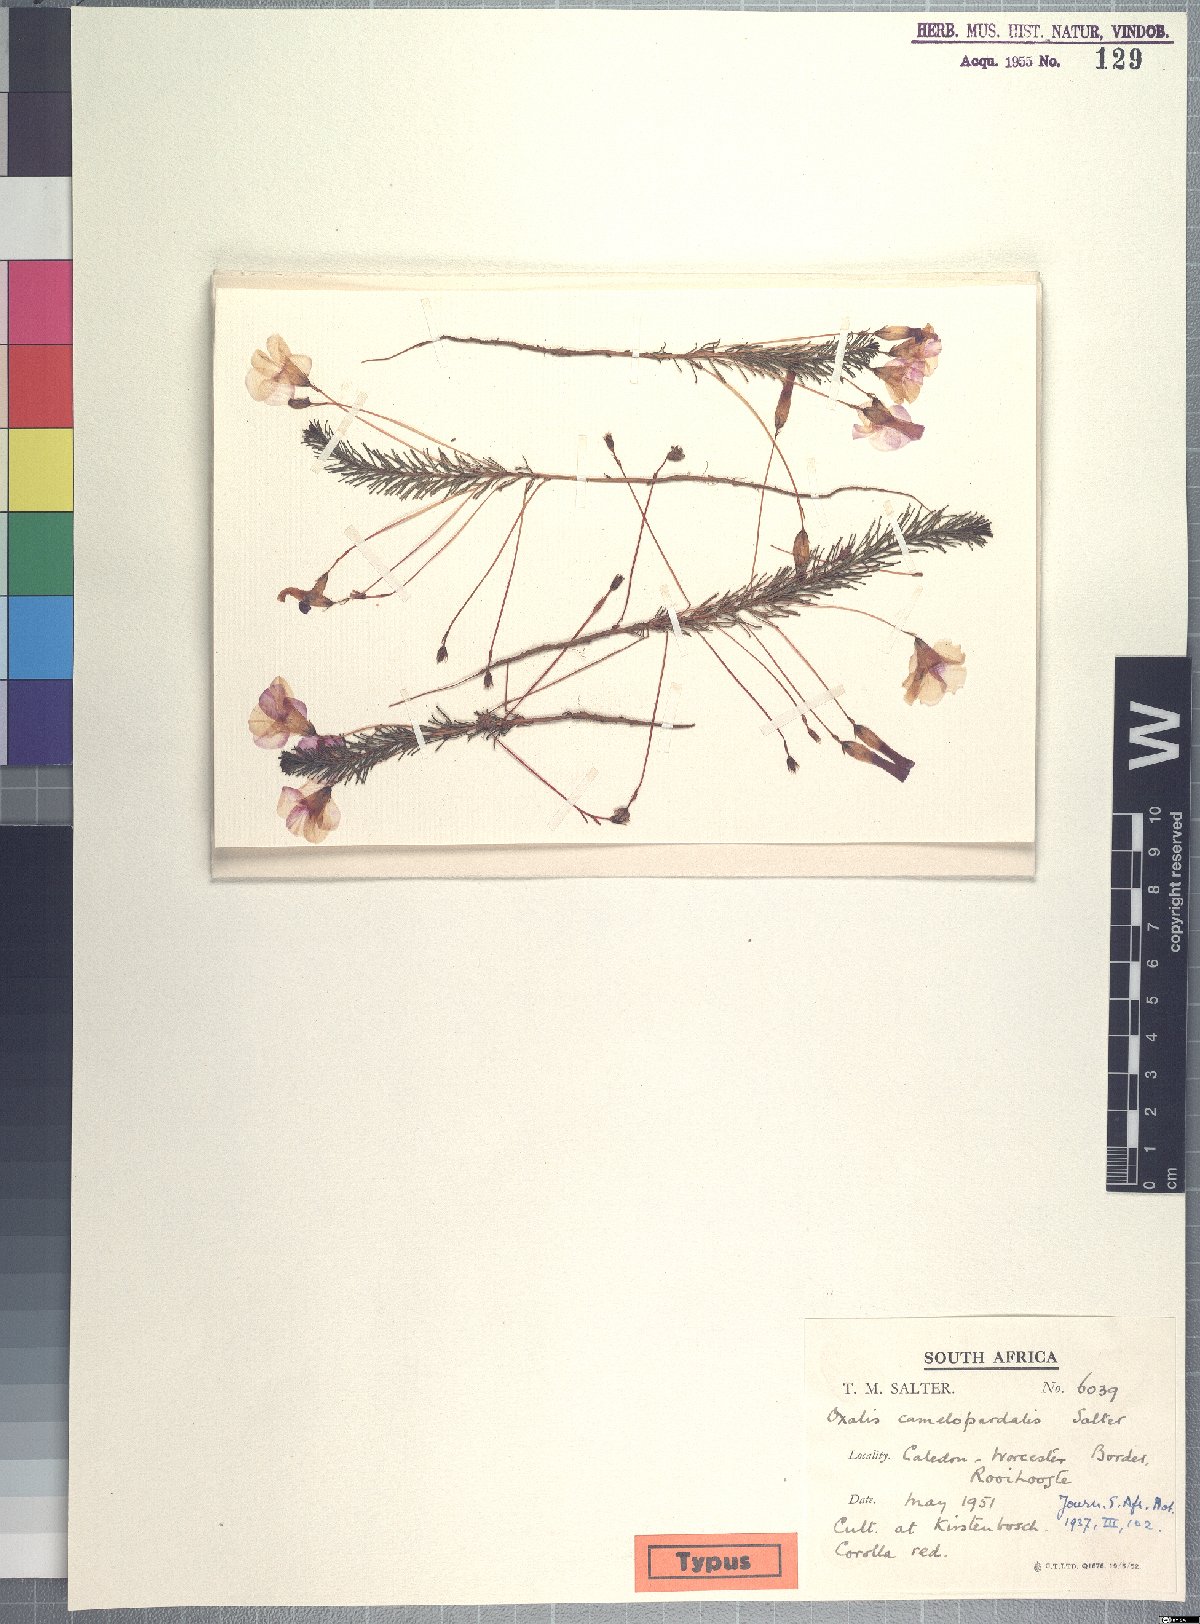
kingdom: Plantae
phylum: Tracheophyta
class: Magnoliopsida
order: Oxalidales
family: Oxalidaceae
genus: Oxalis
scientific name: Oxalis camelopardalis
